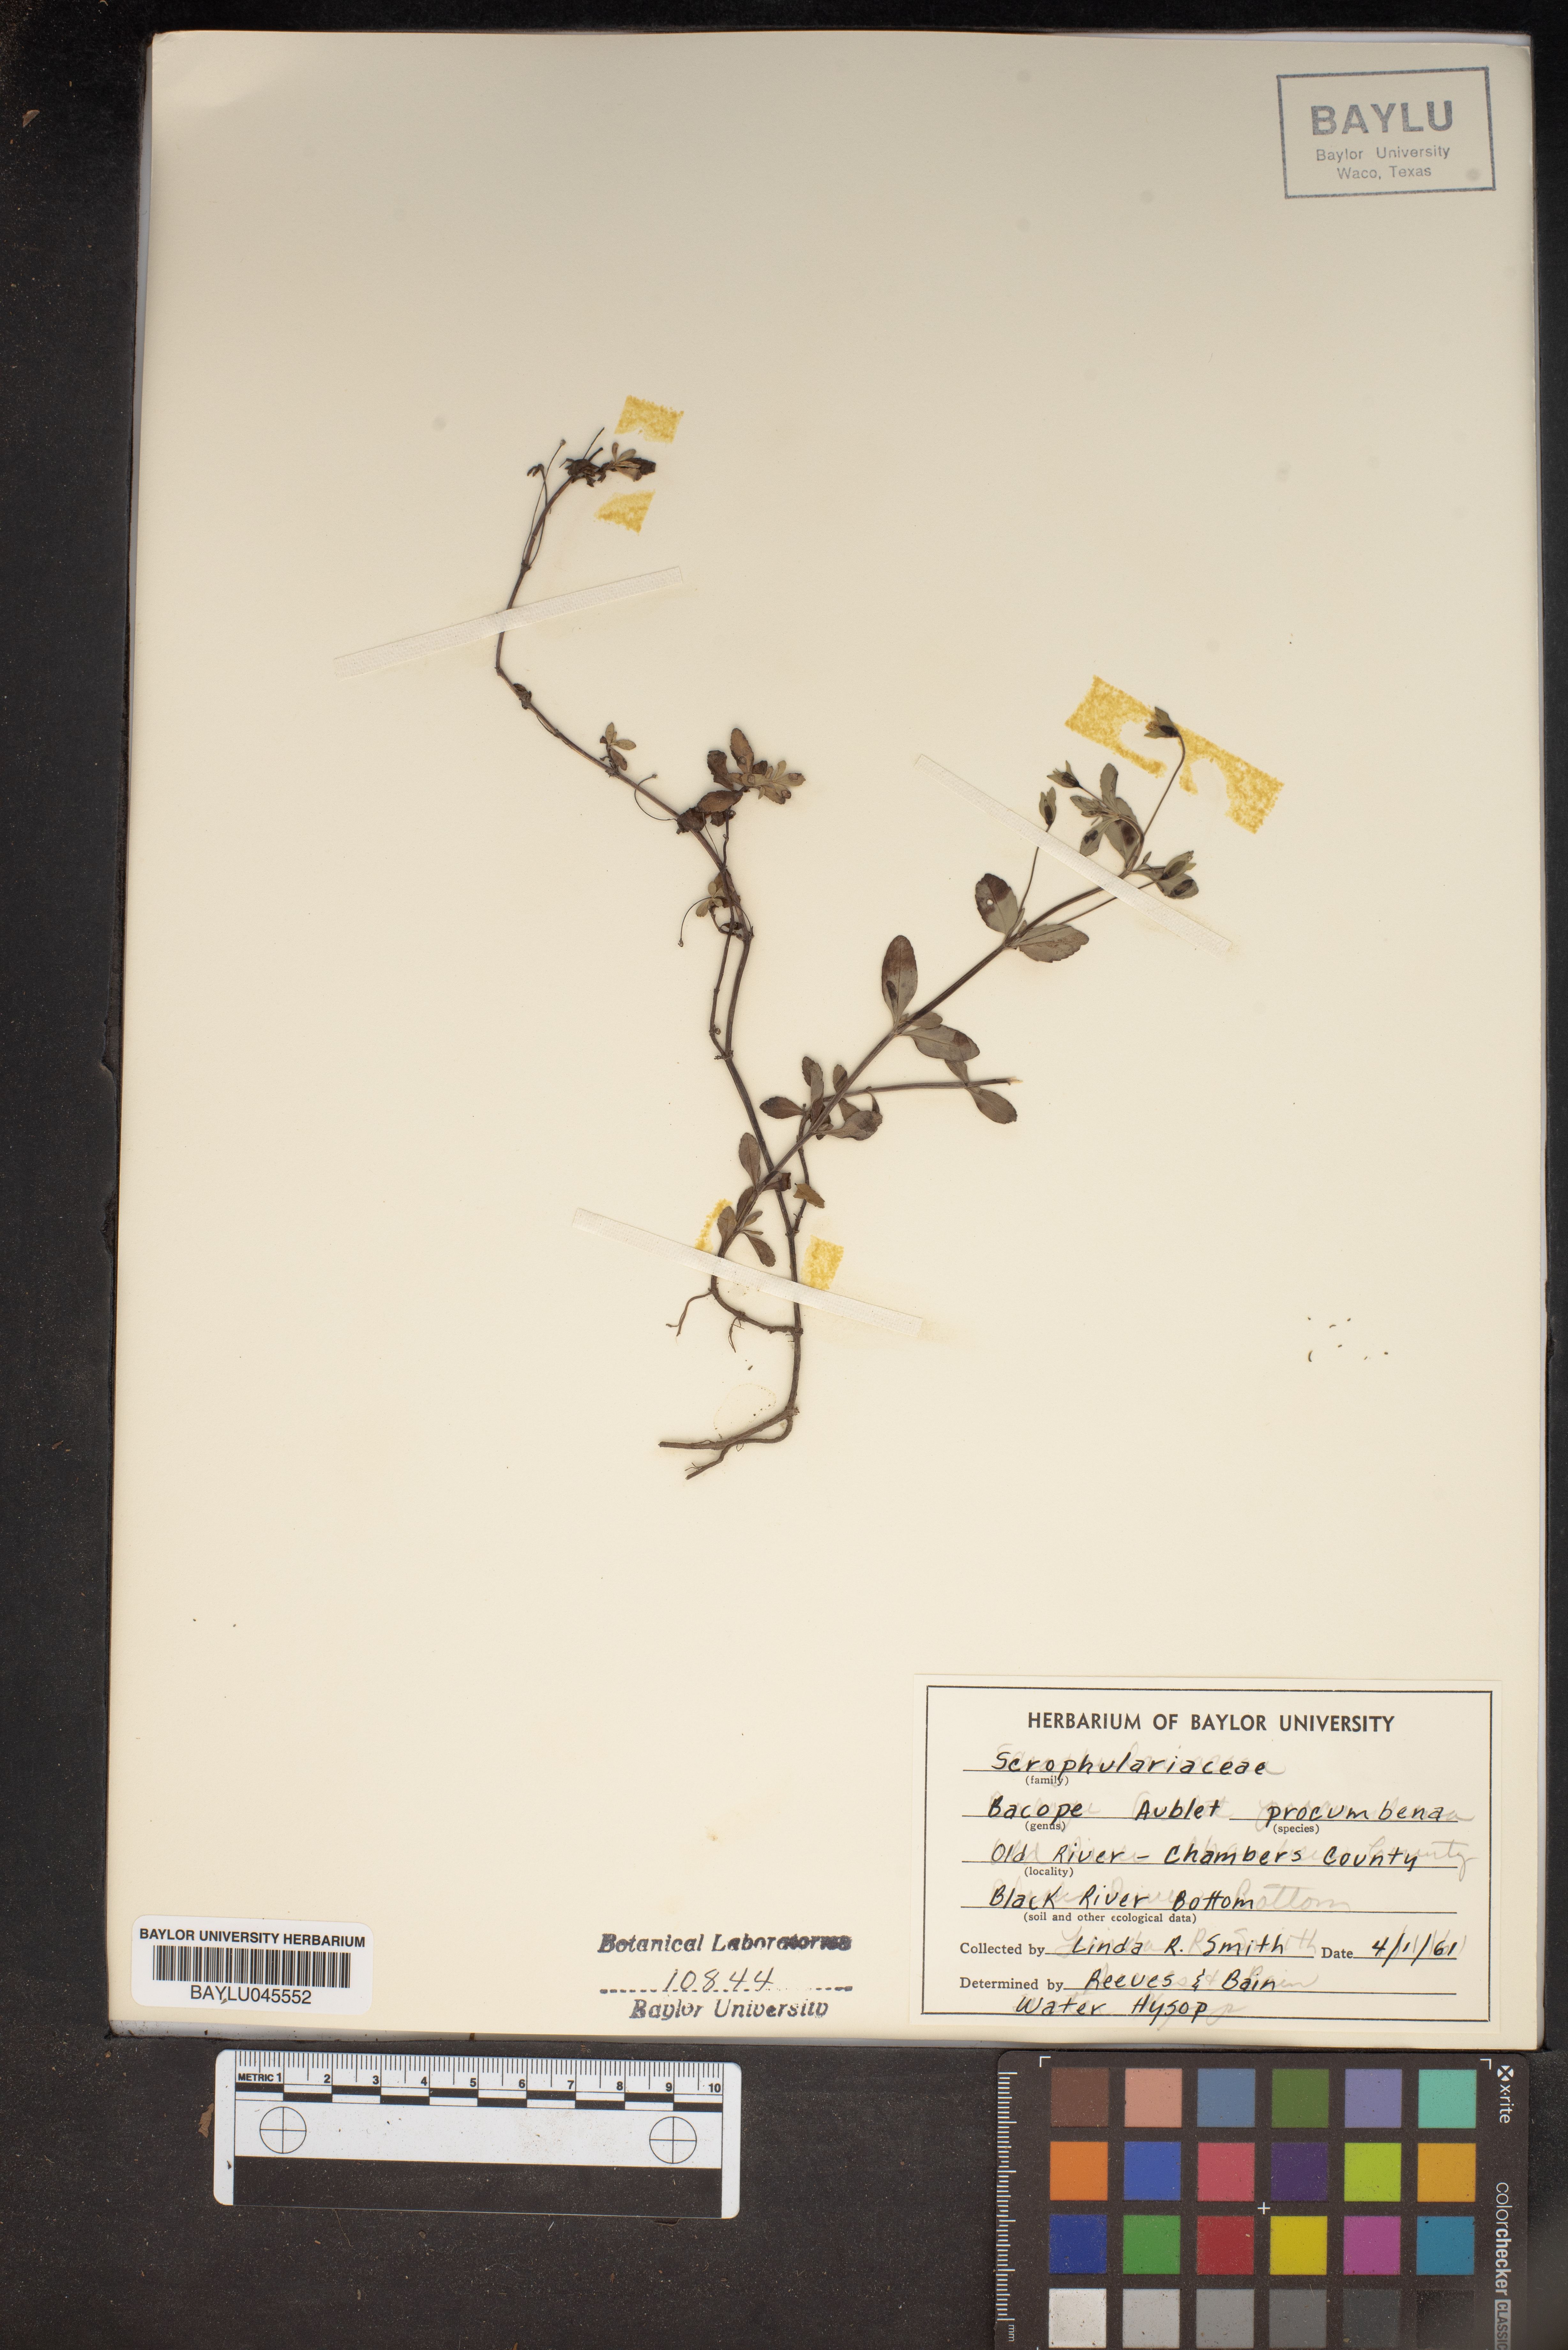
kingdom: Plantae
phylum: Tracheophyta
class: Magnoliopsida
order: Lamiales
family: Plantaginaceae
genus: Mecardonia
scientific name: Mecardonia procumbens
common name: Baby jump-up
